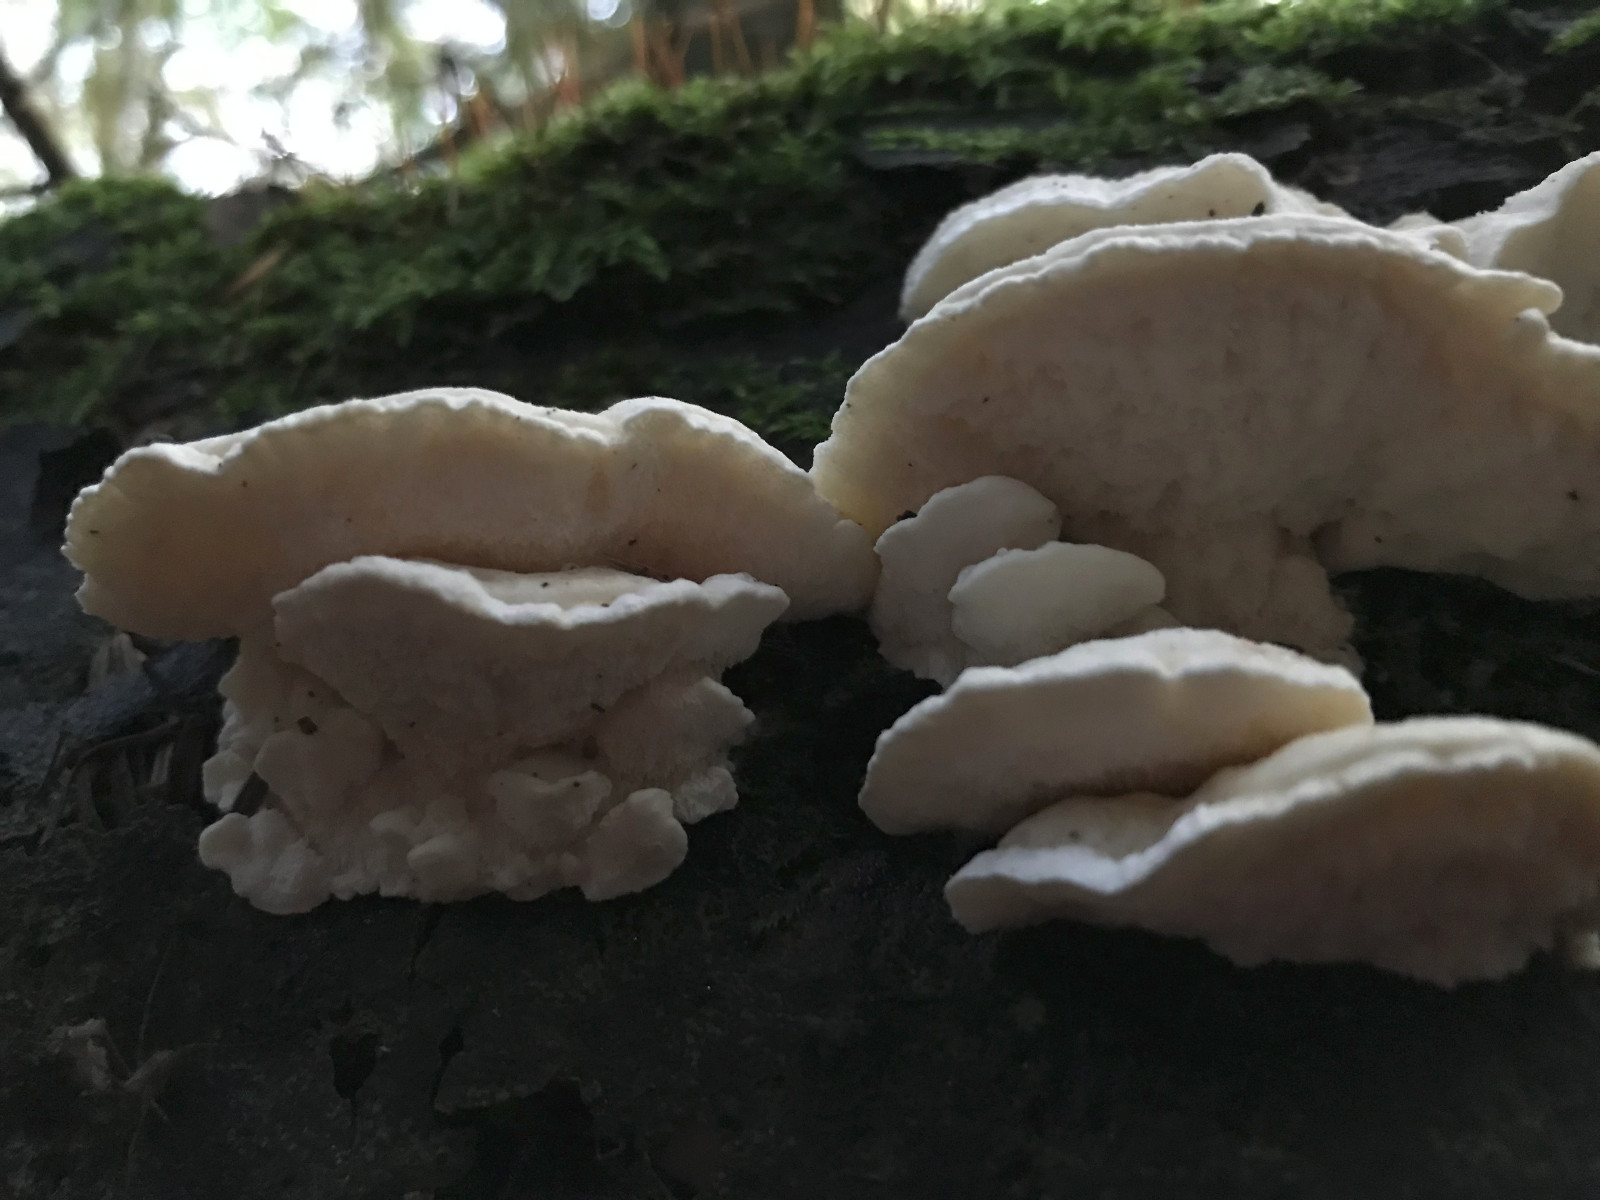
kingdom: Fungi
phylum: Basidiomycota
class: Agaricomycetes
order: Polyporales
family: Incrustoporiaceae
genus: Tyromyces
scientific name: Tyromyces chioneus
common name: stor blødporesvamp
